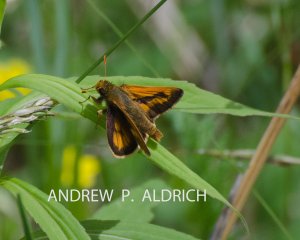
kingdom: Animalia
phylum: Arthropoda
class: Insecta
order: Lepidoptera
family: Hesperiidae
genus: Polites
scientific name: Polites
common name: Long Dash Skipper
